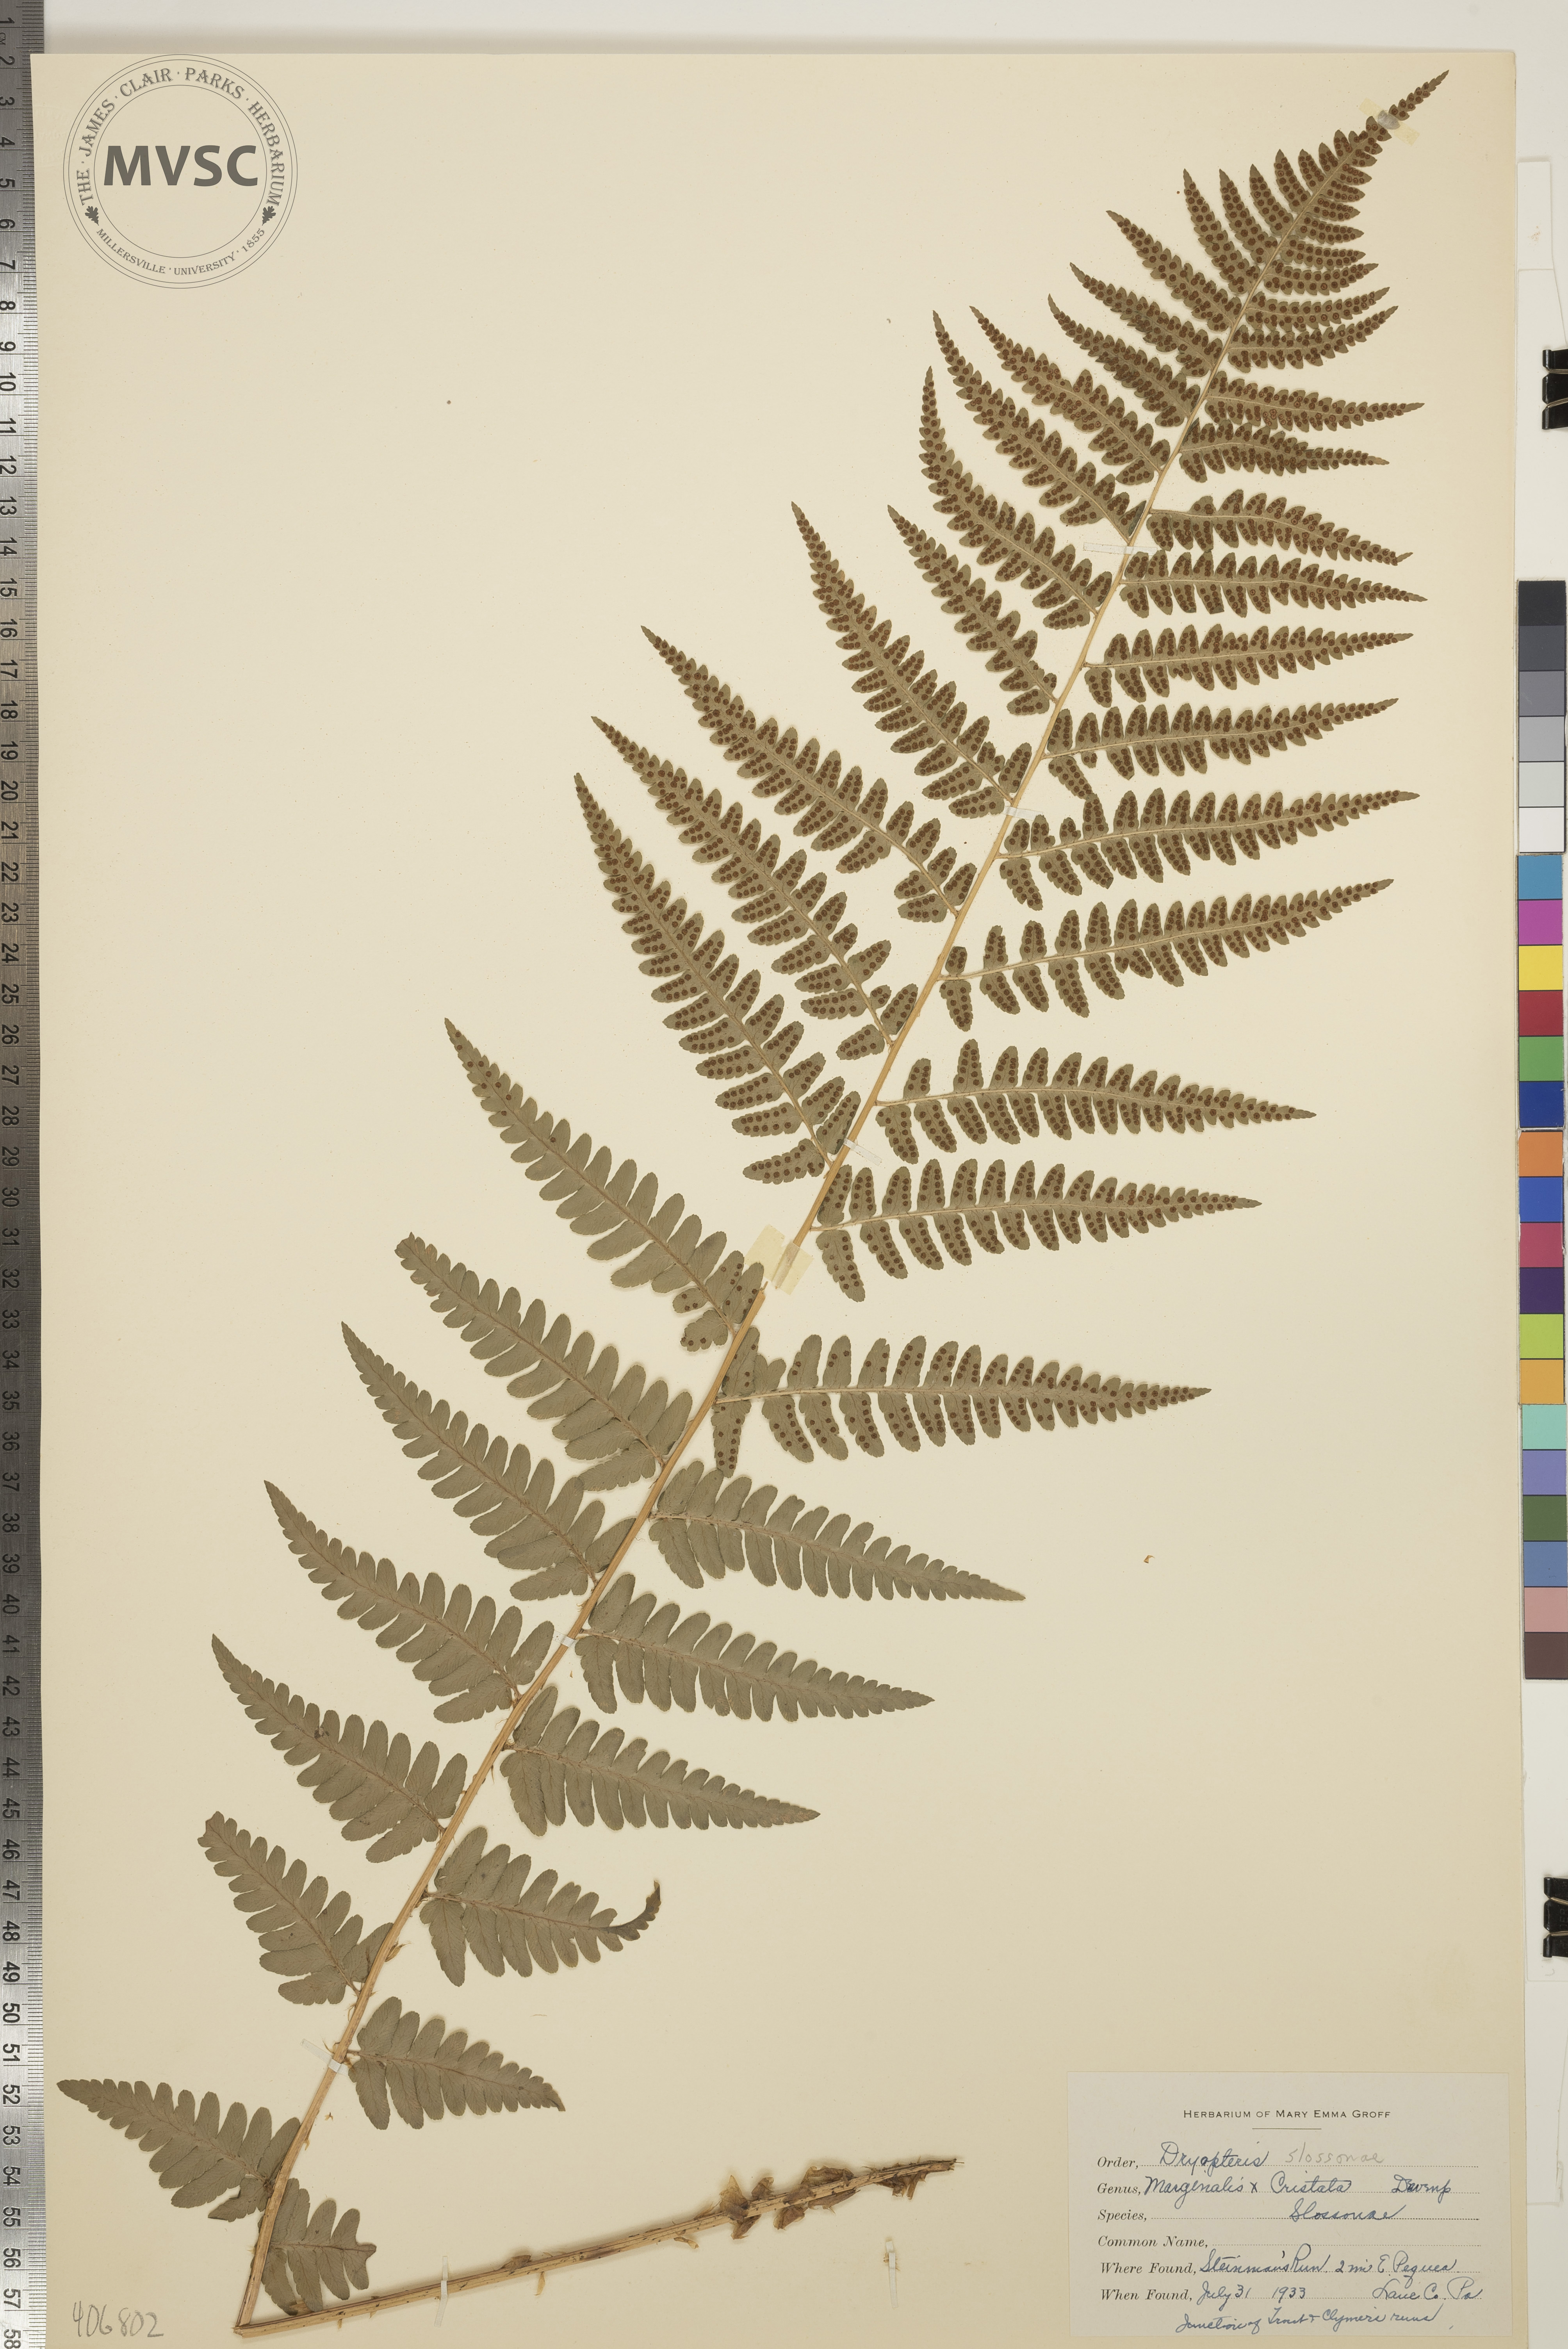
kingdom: Plantae
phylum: Tracheophyta
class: Polypodiopsida
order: Polypodiales
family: Dryopteridaceae
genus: Dryopteris
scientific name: Dryopteris
